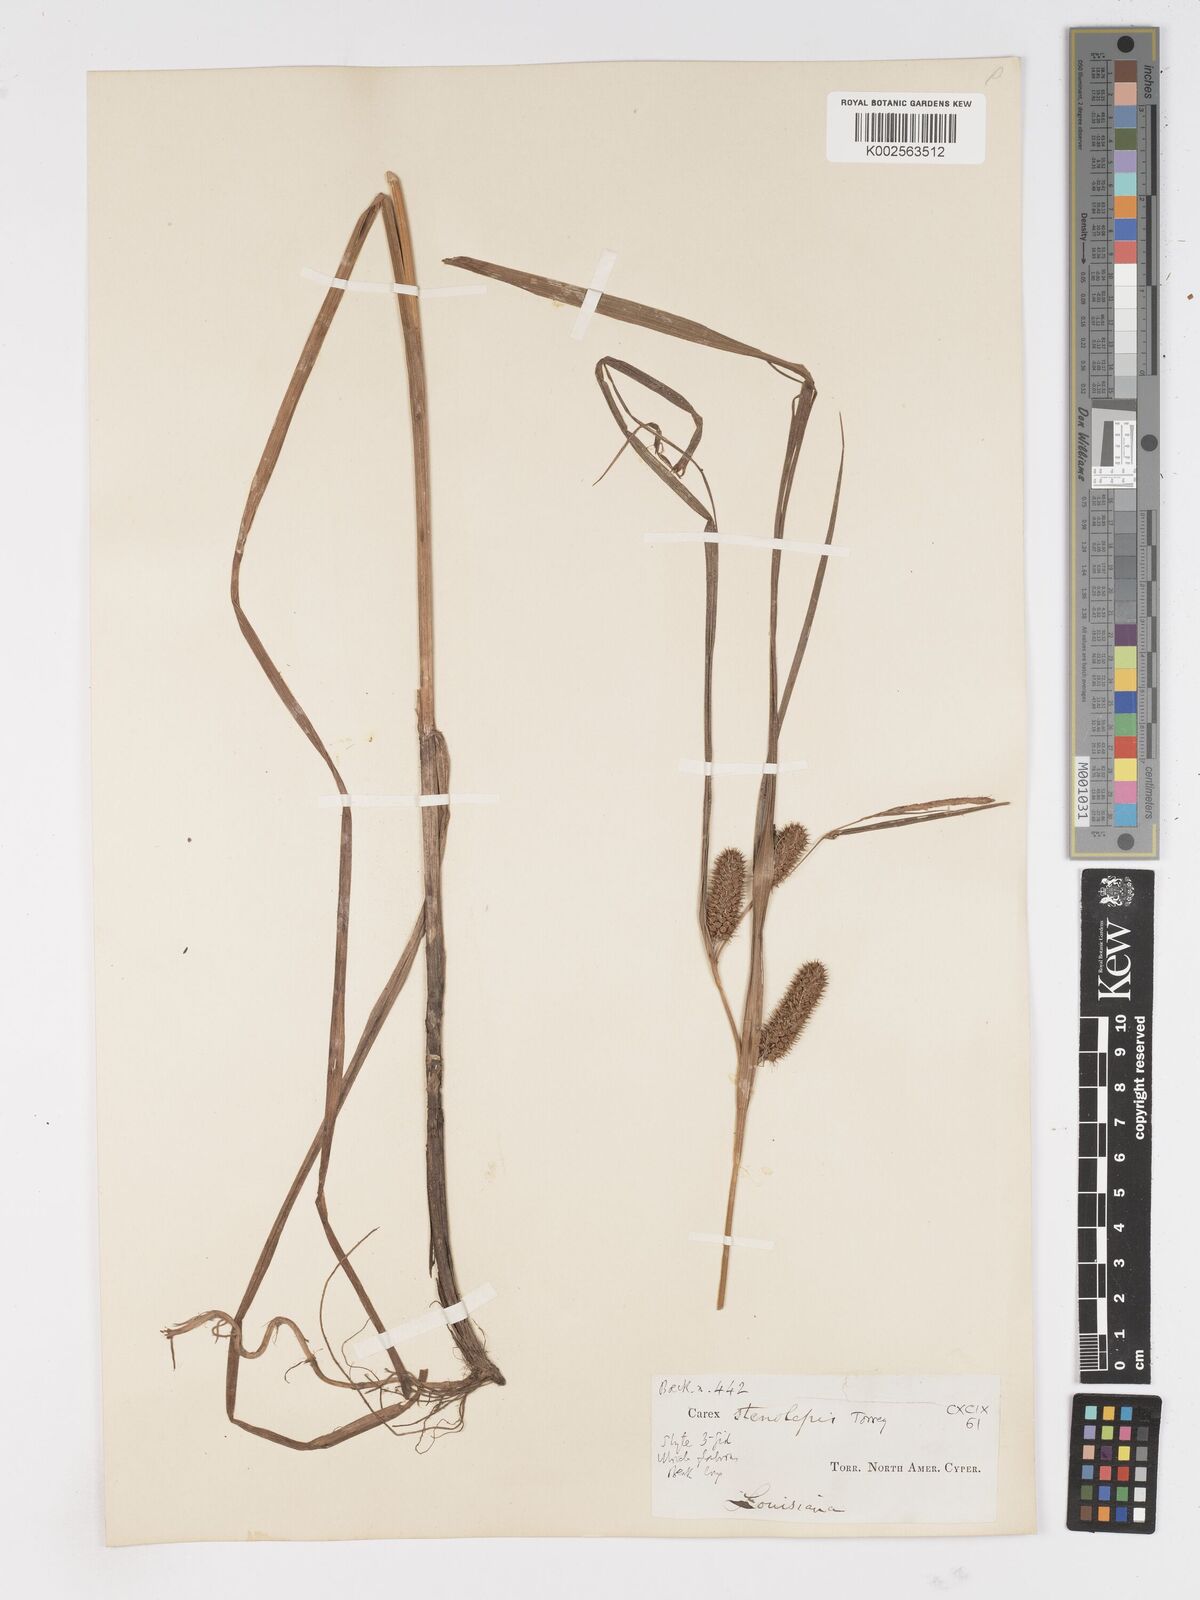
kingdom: Plantae
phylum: Tracheophyta
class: Liliopsida
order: Poales
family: Cyperaceae
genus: Carex
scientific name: Carex frankii
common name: Frank's sedge
